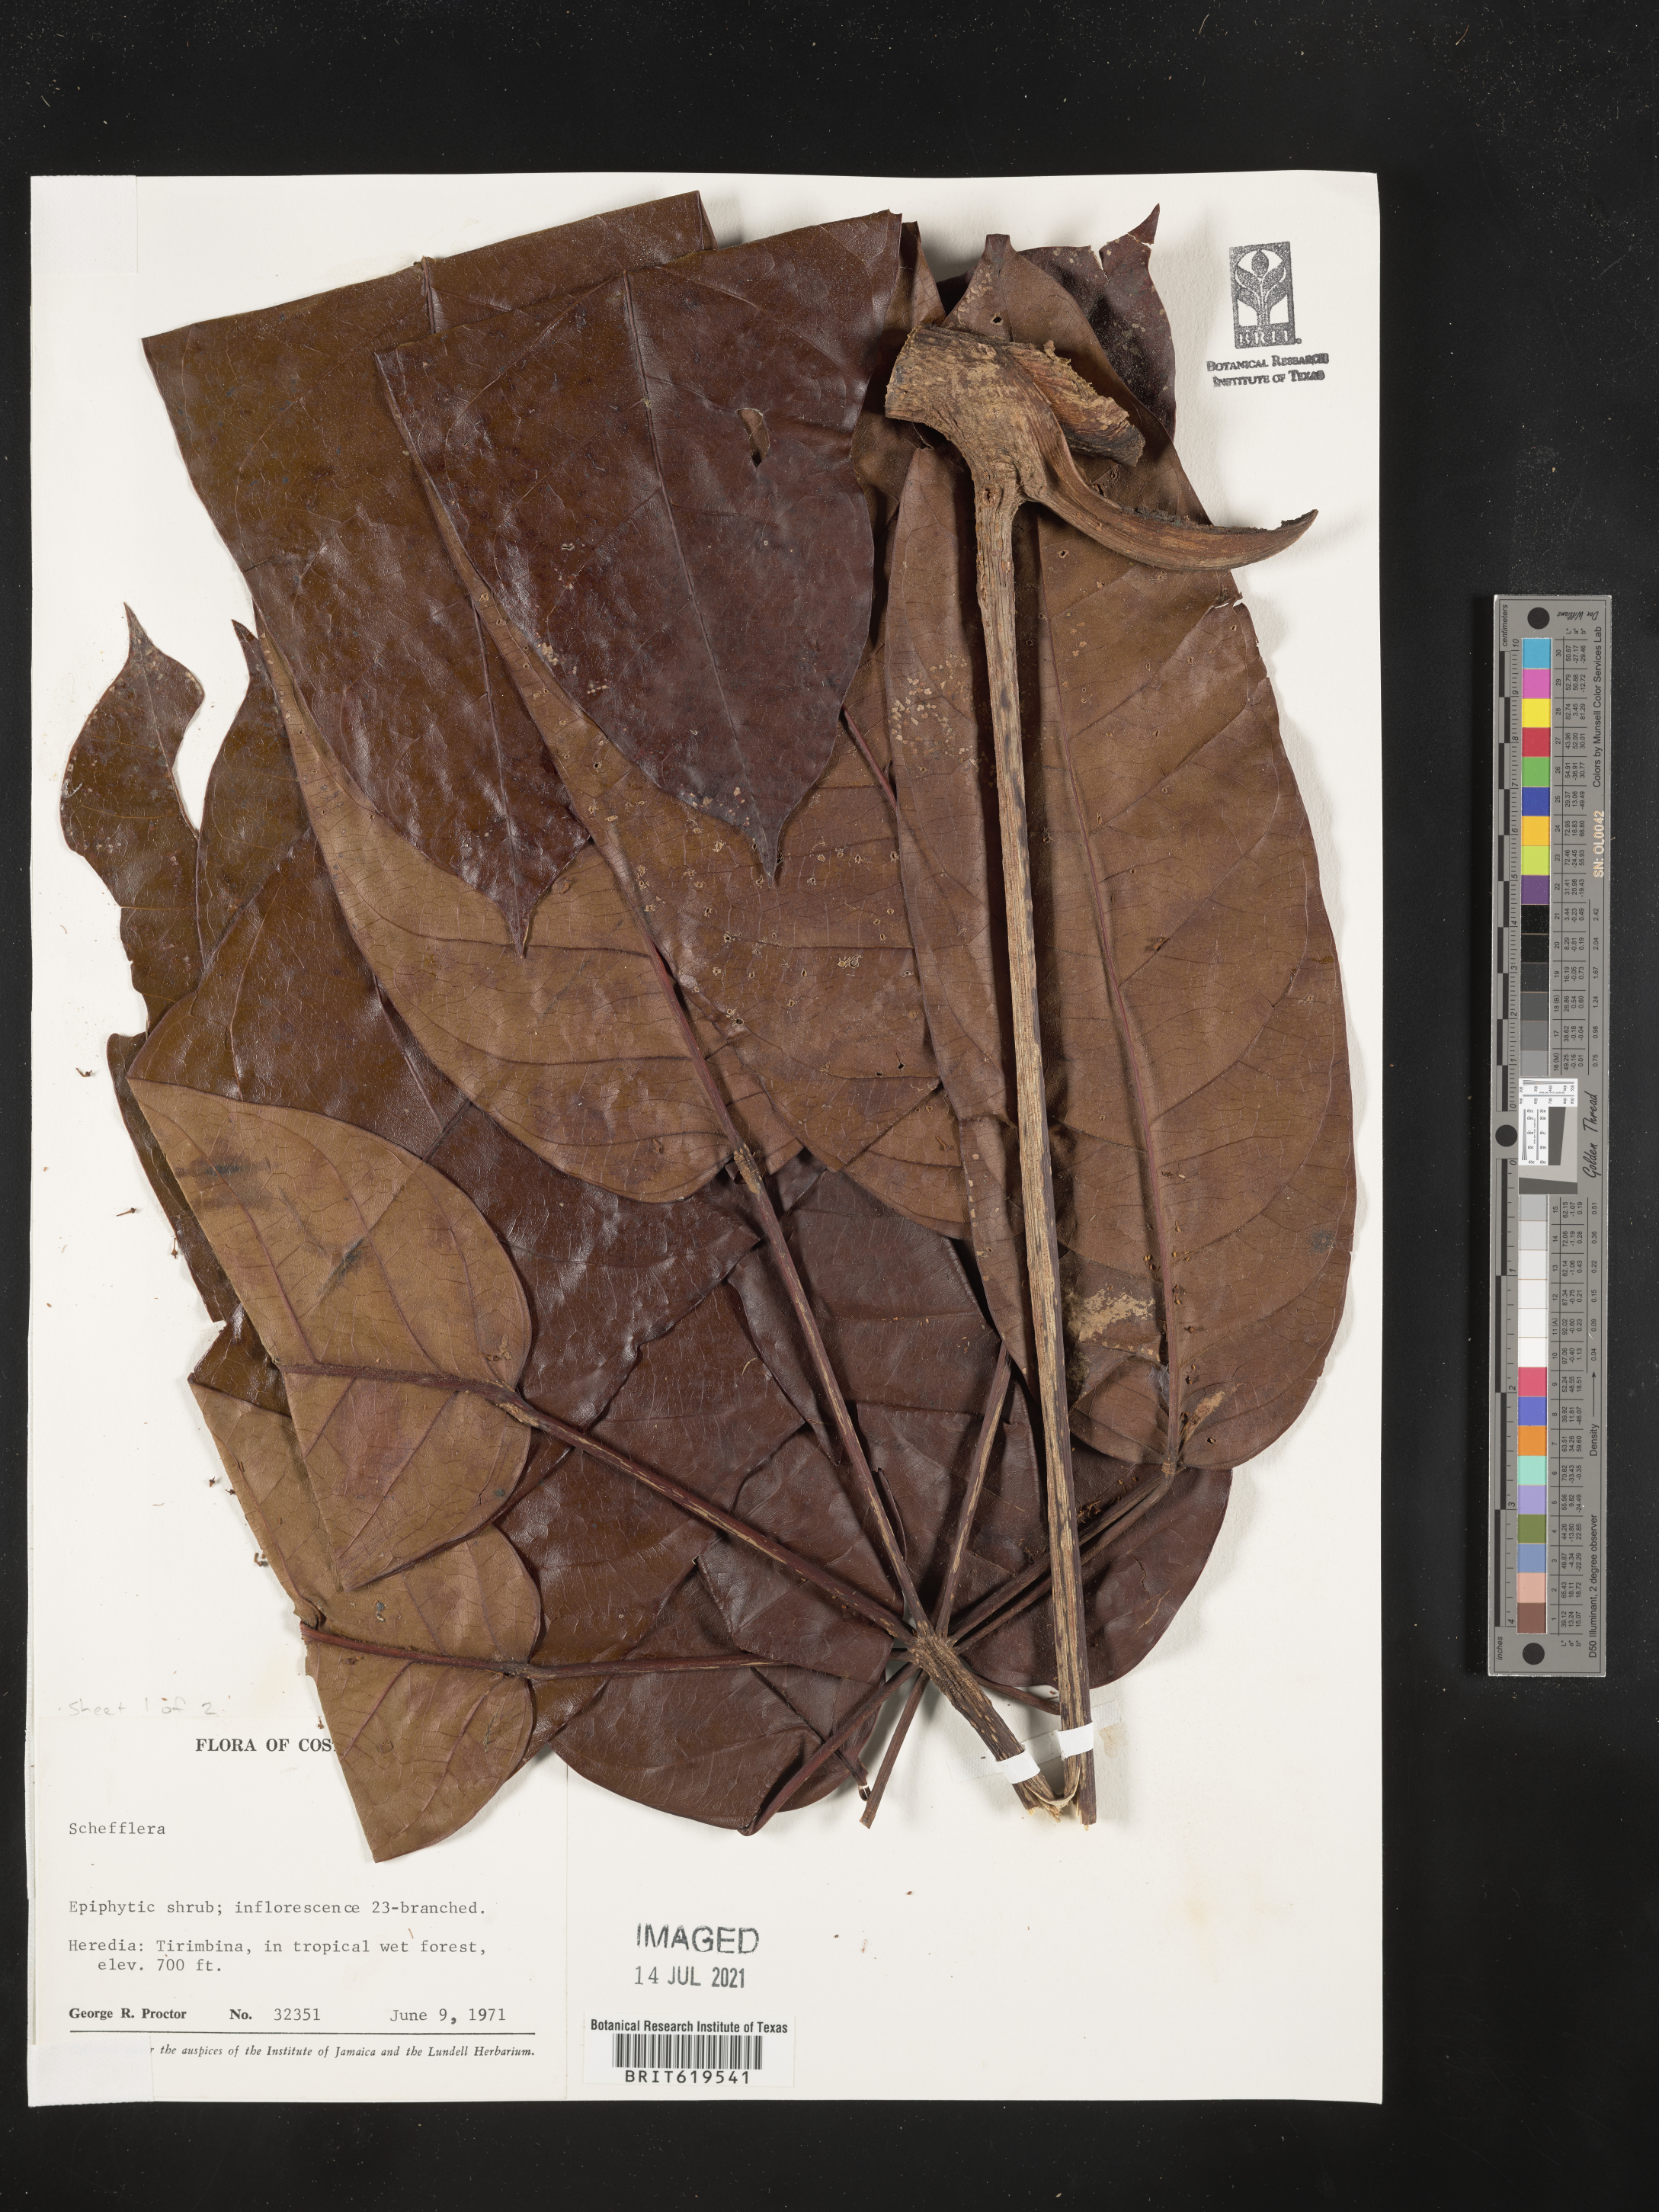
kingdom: Plantae
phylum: Tracheophyta
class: Magnoliopsida
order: Apiales
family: Araliaceae
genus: Schefflera
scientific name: Schefflera
